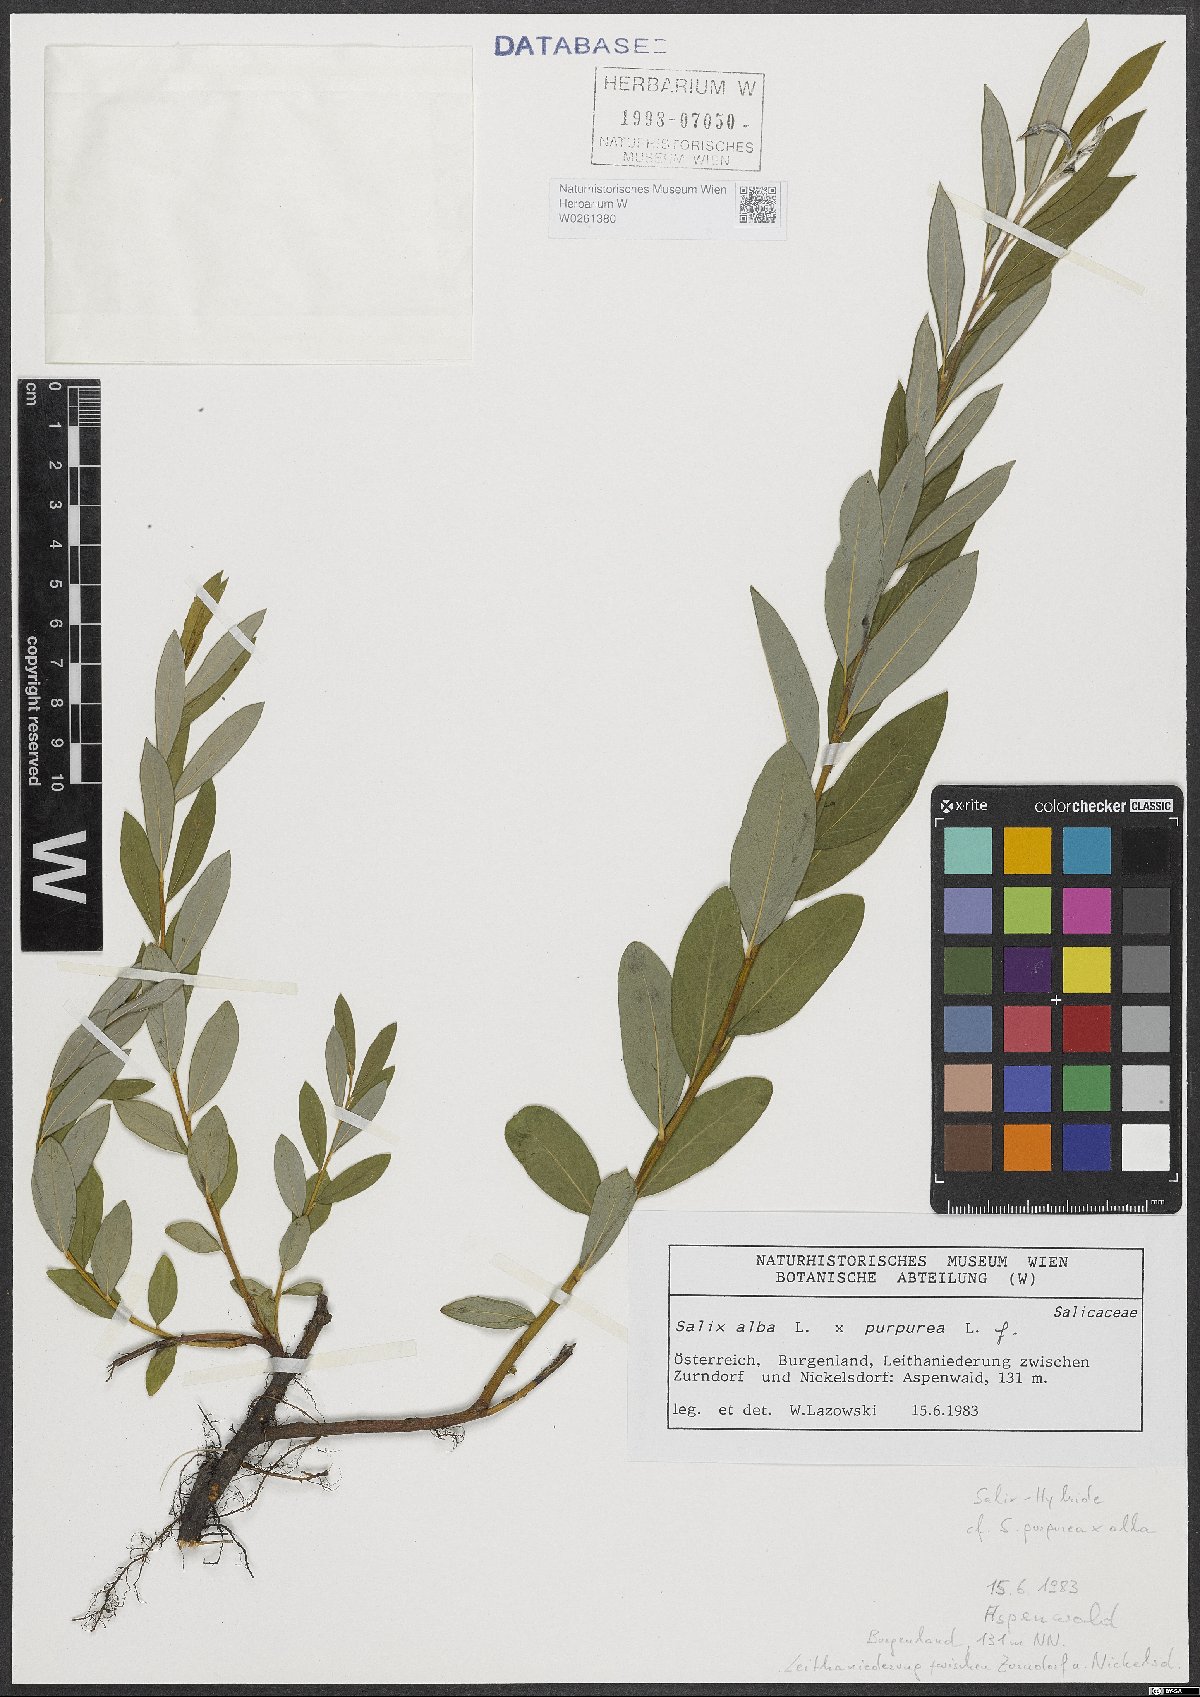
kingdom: Plantae
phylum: Tracheophyta
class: Magnoliopsida
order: Malpighiales
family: Salicaceae
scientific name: Salicaceae
